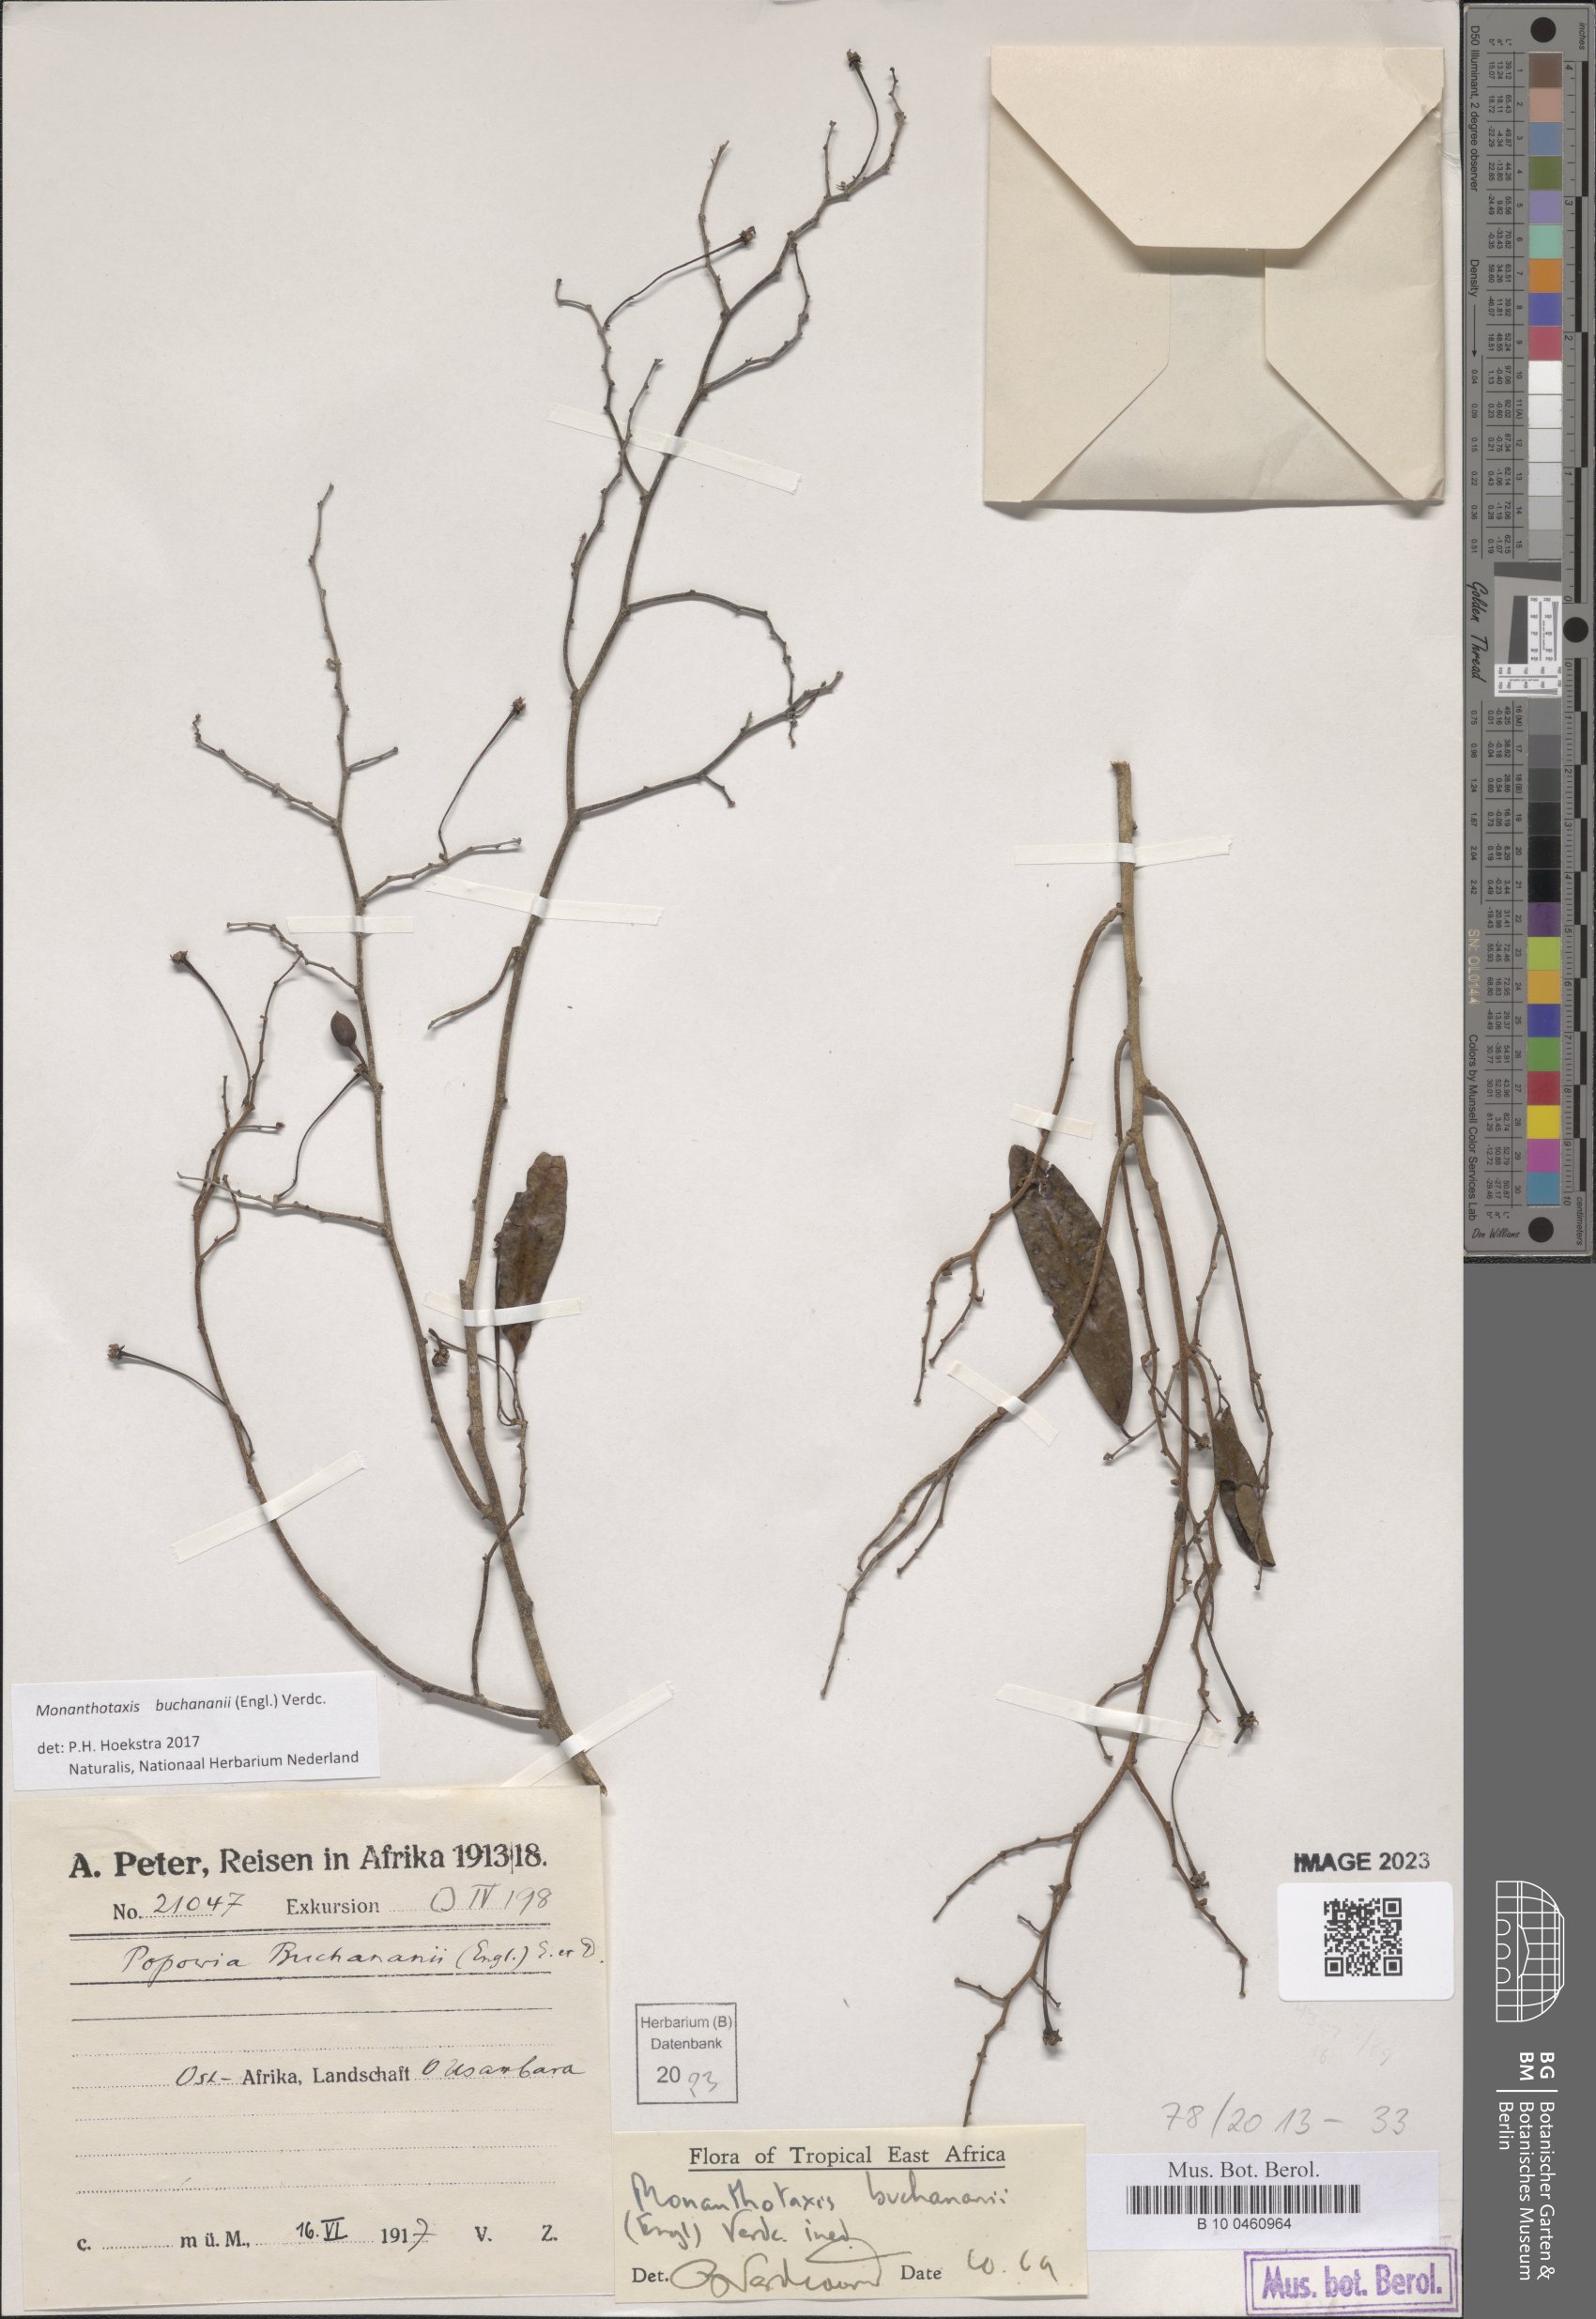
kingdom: Plantae
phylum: Tracheophyta
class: Magnoliopsida
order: Magnoliales
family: Annonaceae
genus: Monanthotaxis
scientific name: Monanthotaxis buchananii
